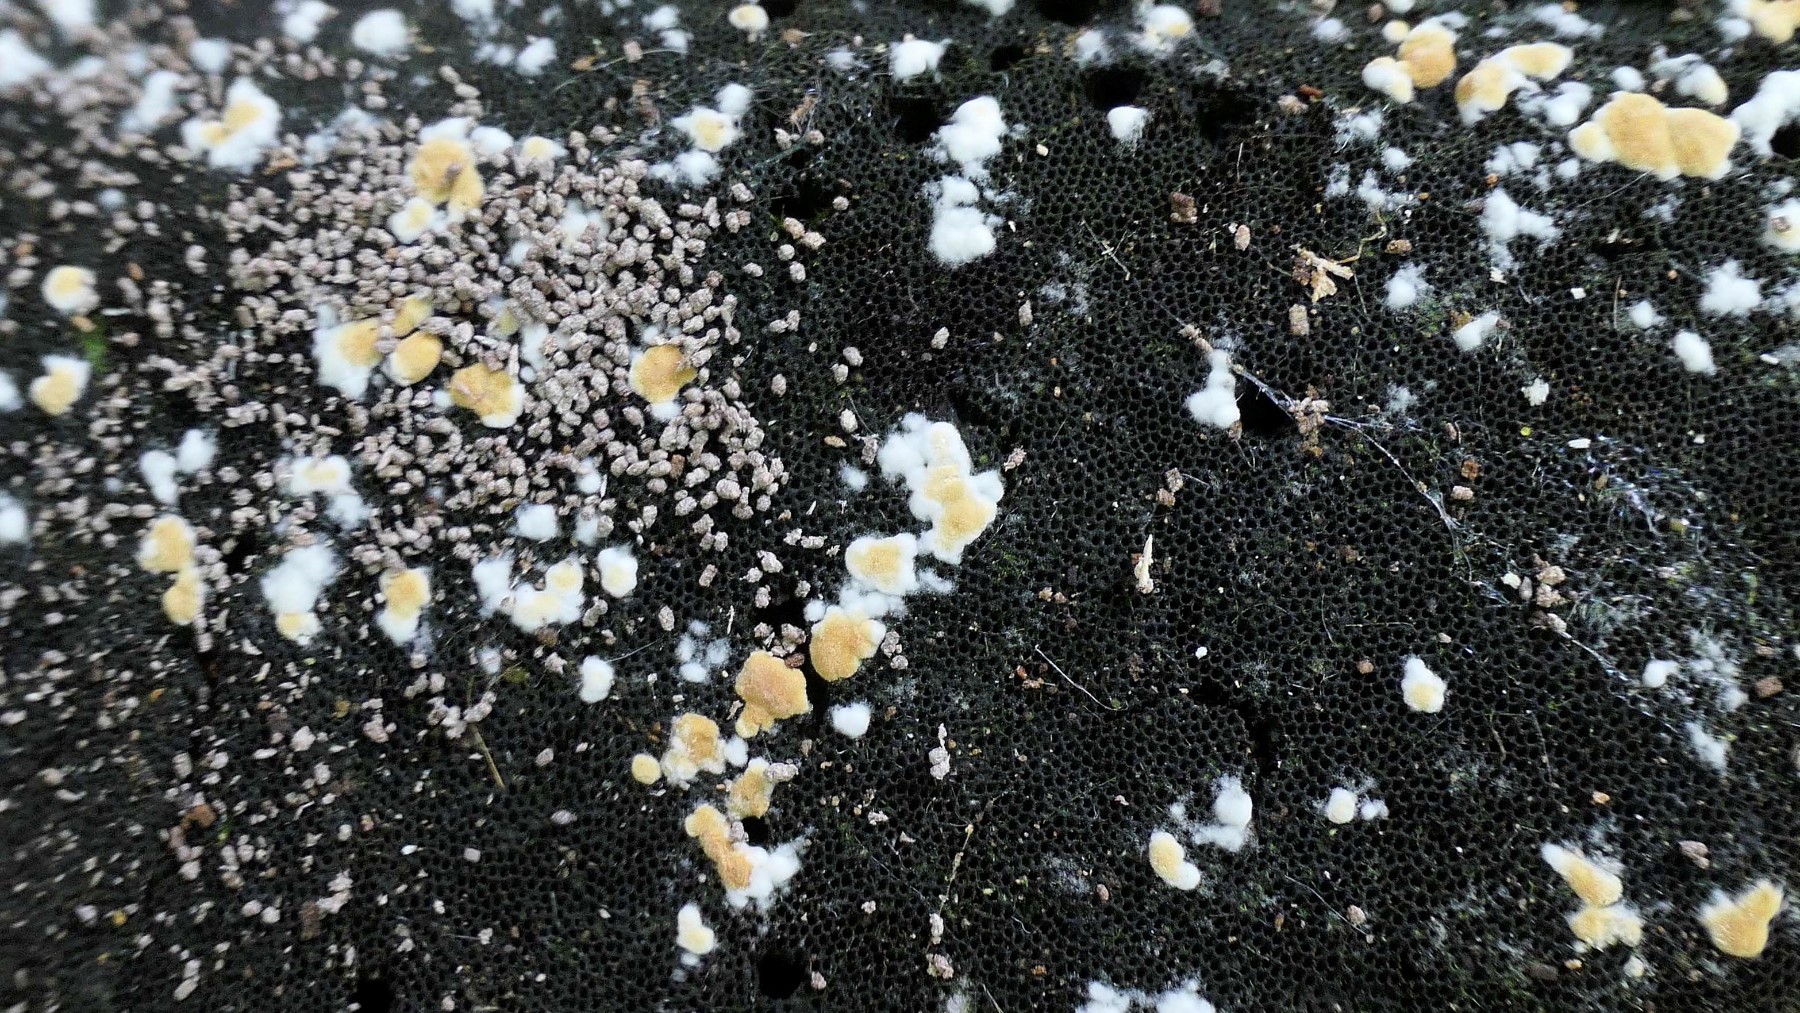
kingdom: Fungi
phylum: Basidiomycota
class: Agaricomycetes
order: Cantharellales
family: Botryobasidiaceae
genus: Botryobasidium
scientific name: Botryobasidium aureum
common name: gylden spindhinde
